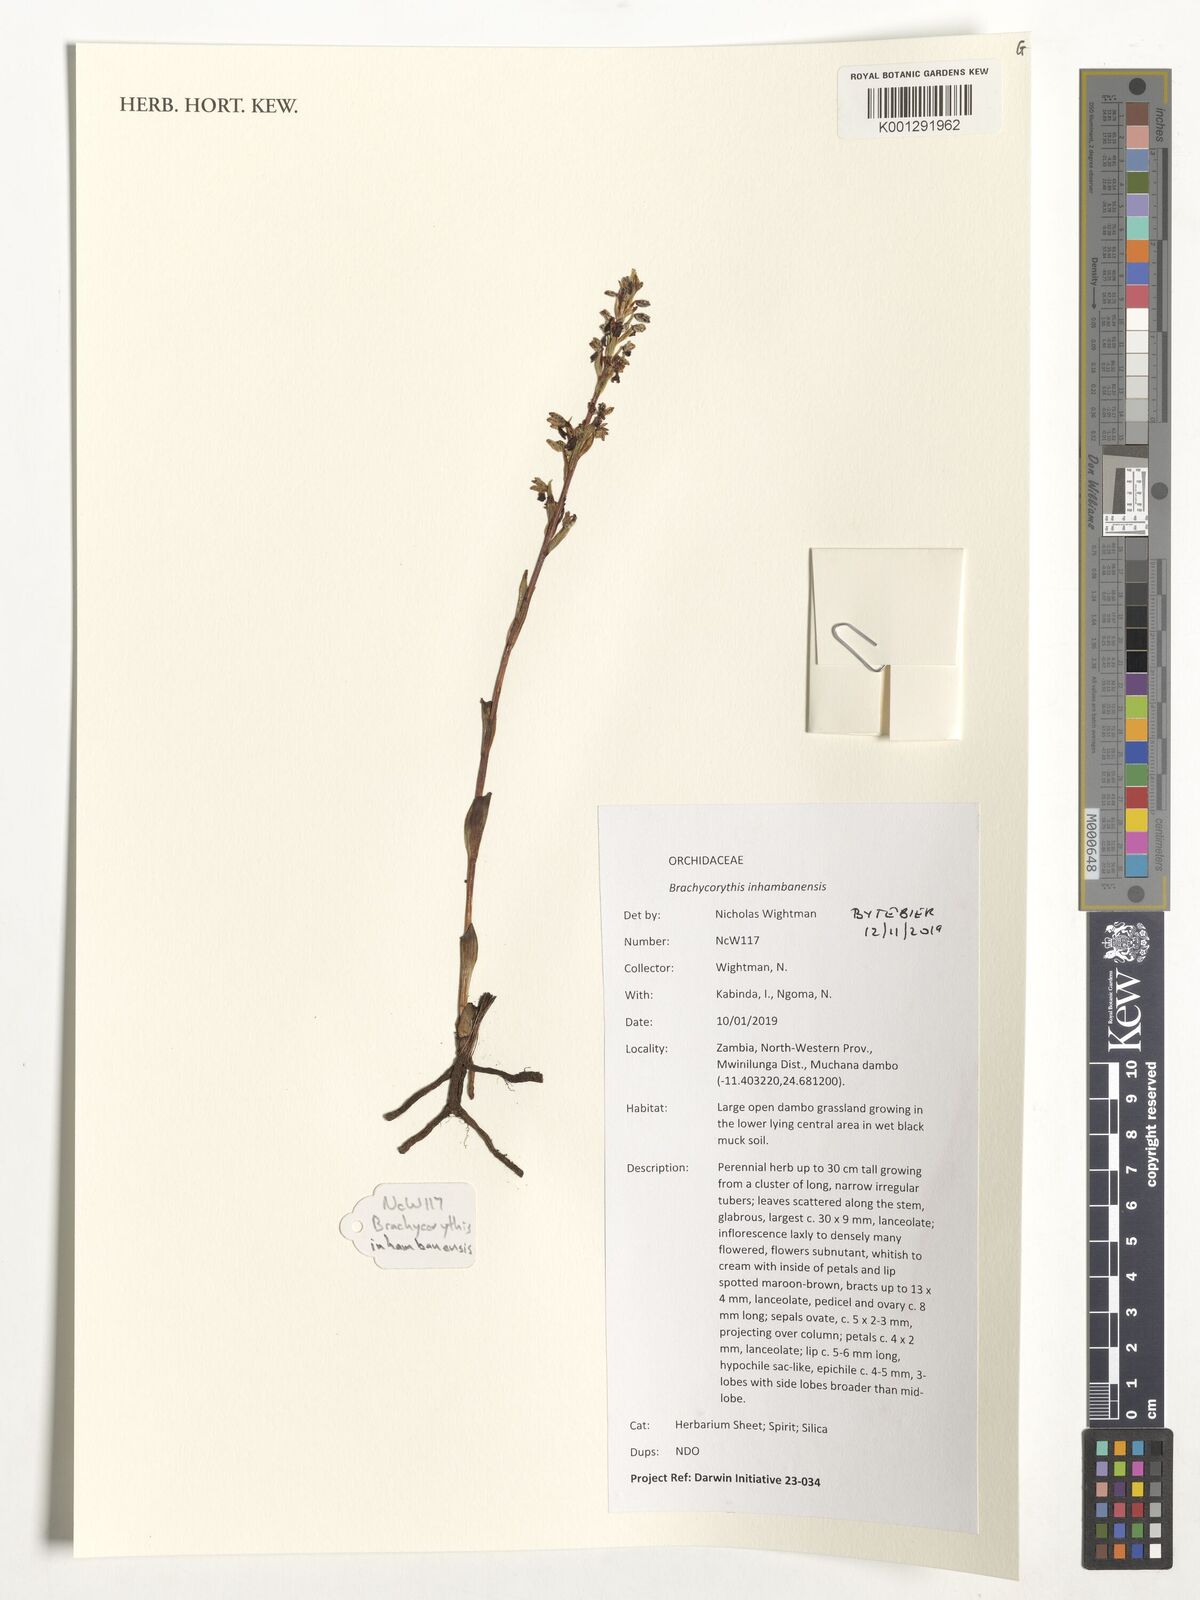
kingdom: Plantae
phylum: Tracheophyta
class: Liliopsida
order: Asparagales
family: Orchidaceae
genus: Brachycorythis
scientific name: Brachycorythis inhambanensis
